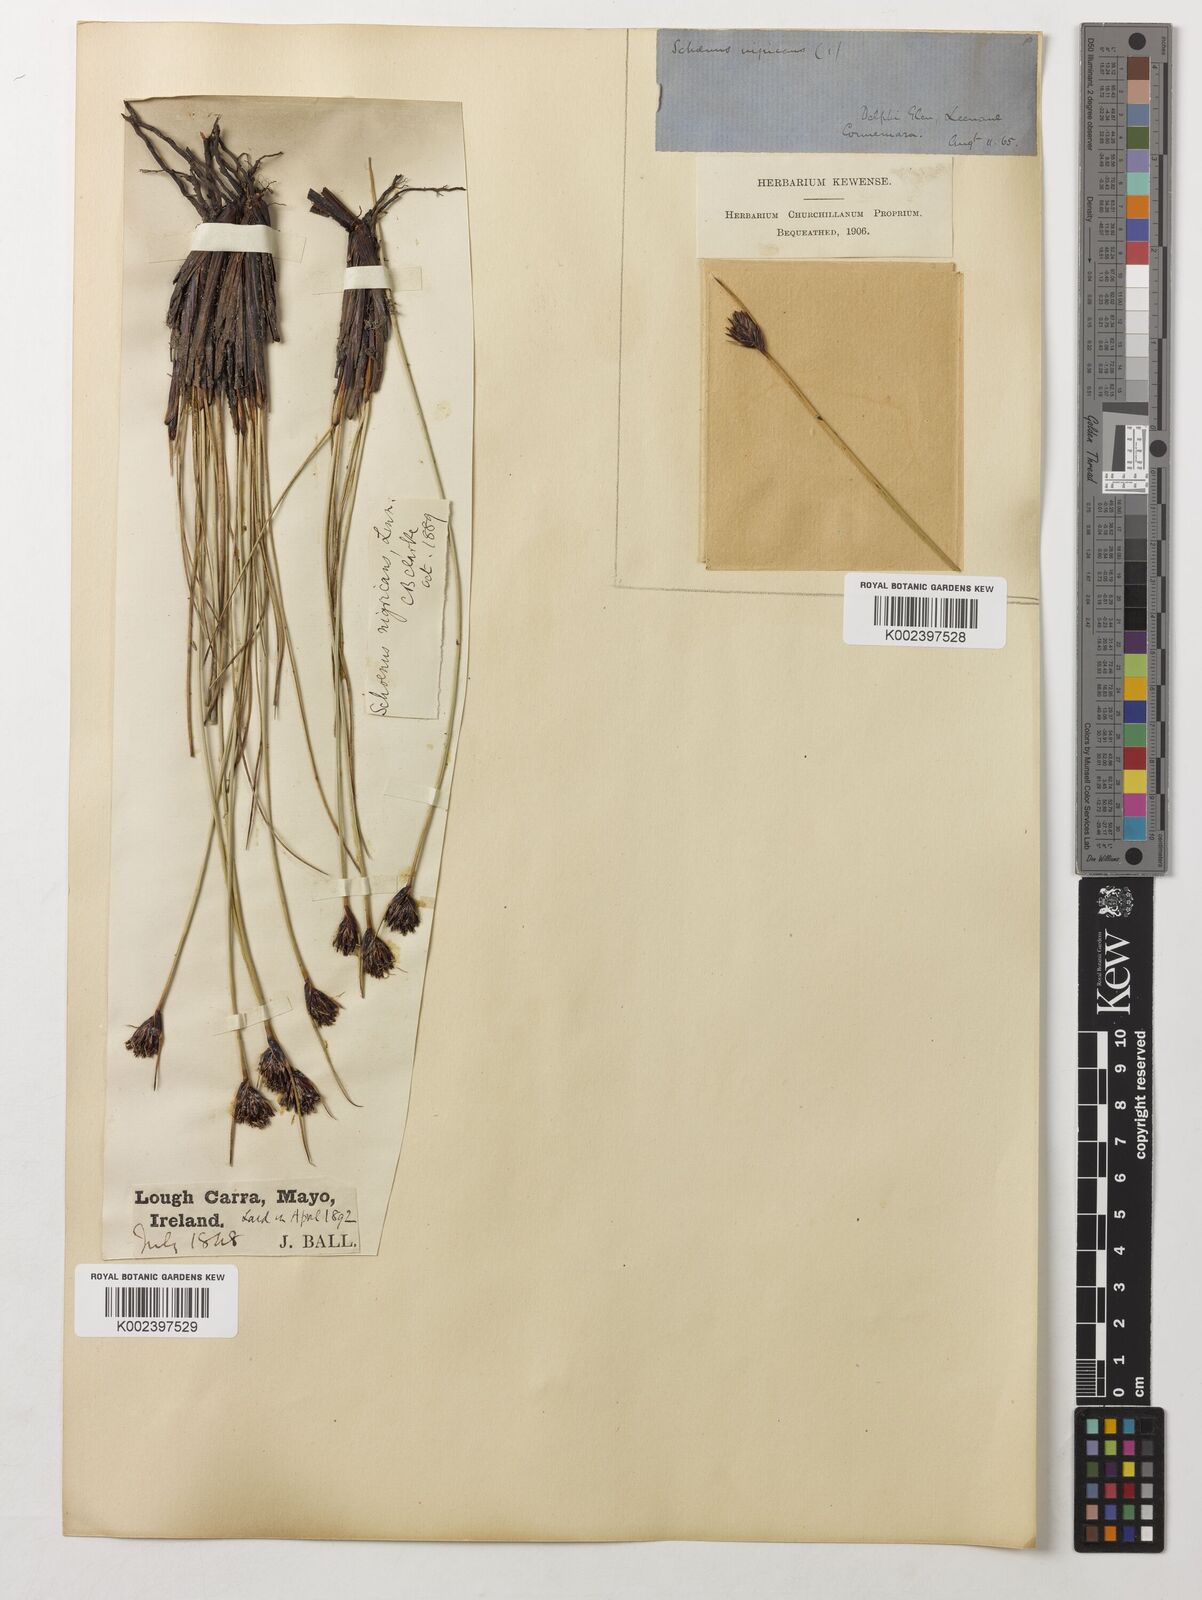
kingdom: Plantae
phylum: Tracheophyta
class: Liliopsida
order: Poales
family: Cyperaceae
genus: Schoenus
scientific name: Schoenus nigricans
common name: Black bog-rush
